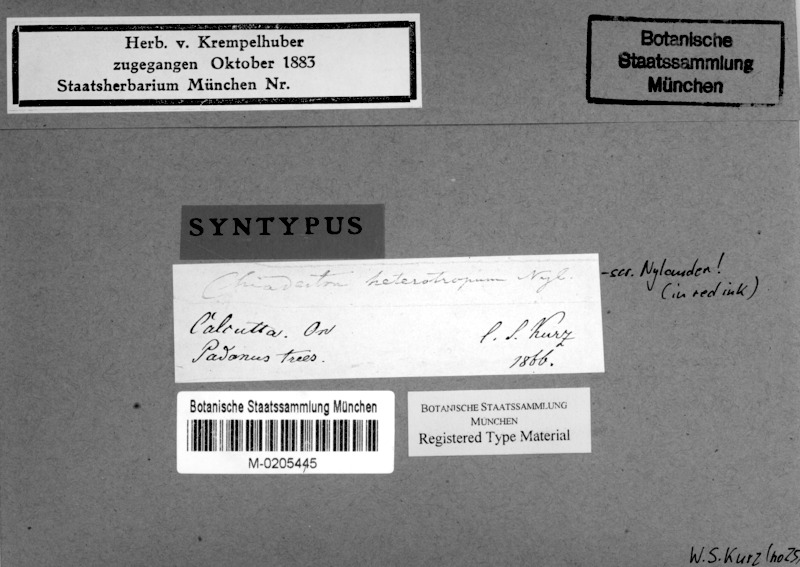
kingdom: Fungi
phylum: Ascomycota
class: Arthoniomycetes
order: Arthoniales
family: Roccellaceae
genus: Chiodecton
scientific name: Chiodecton heterotropum
